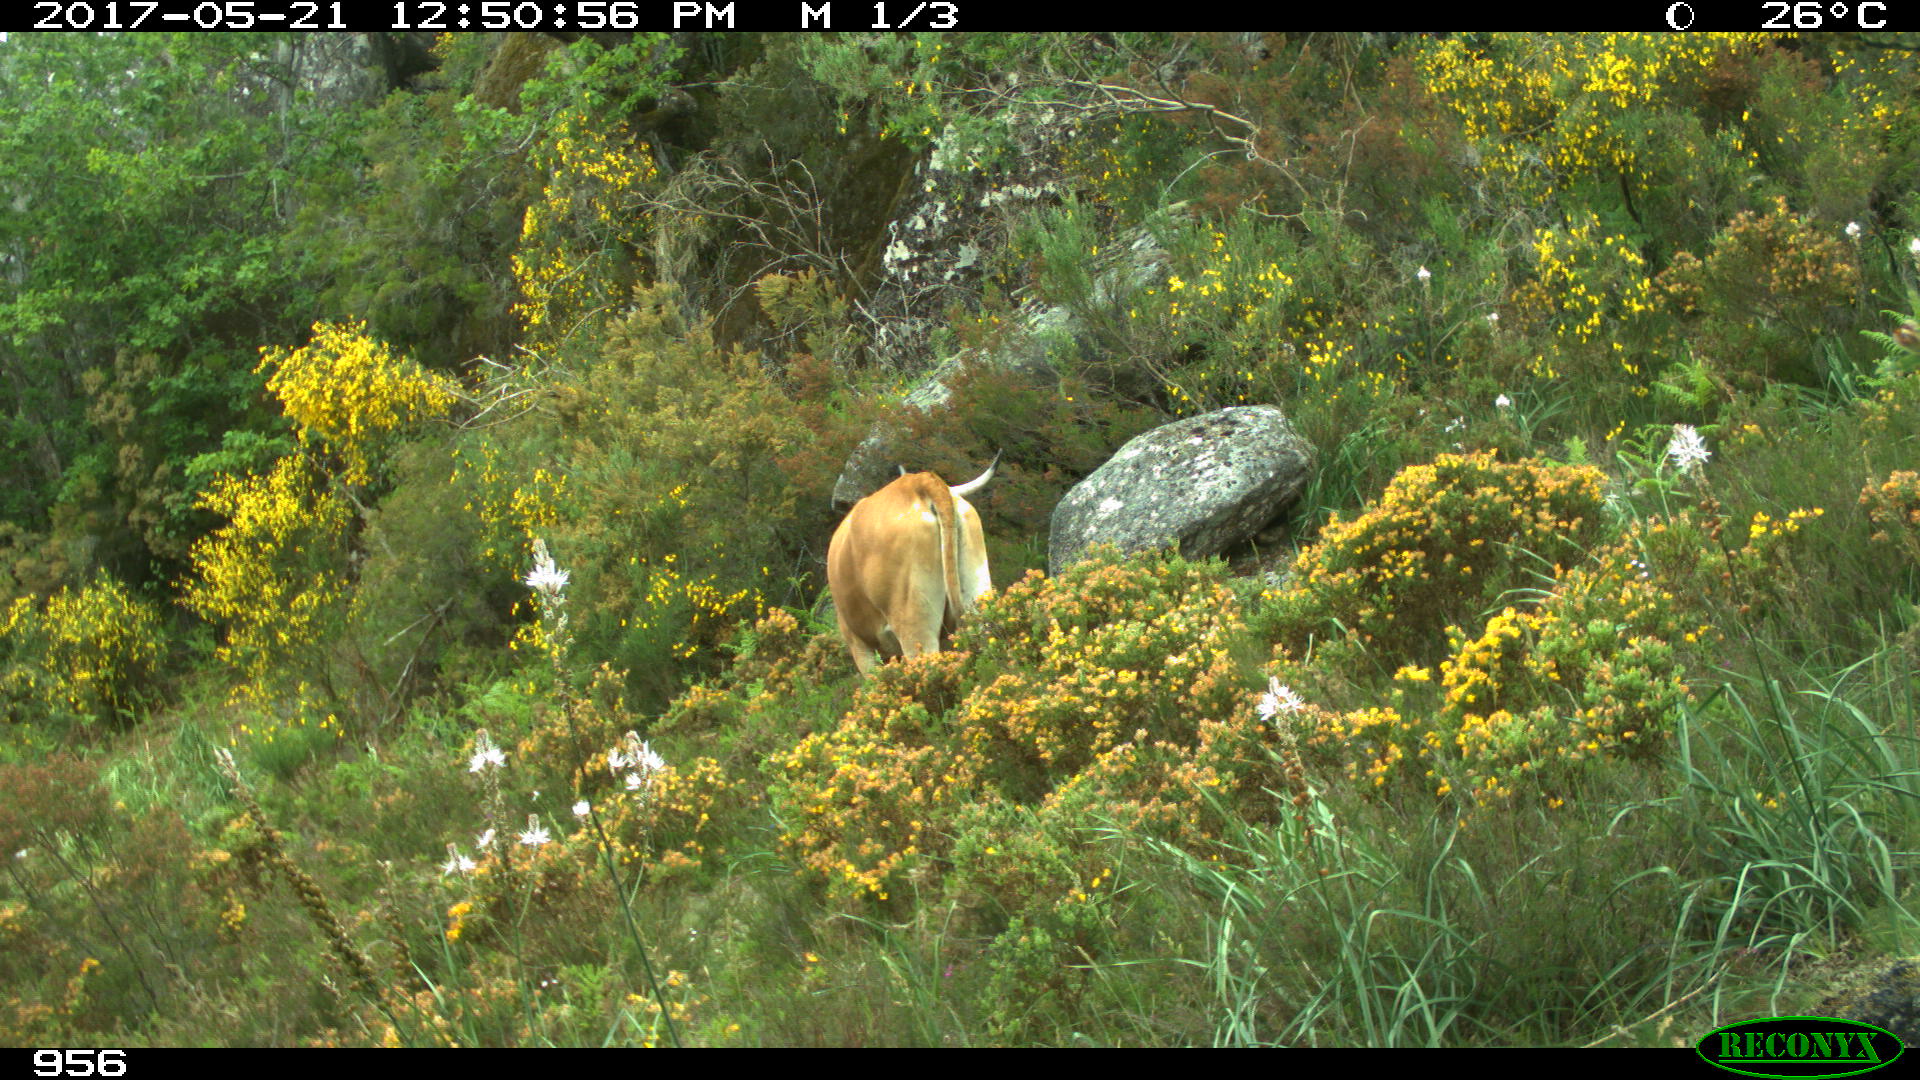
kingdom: Animalia
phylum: Chordata
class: Mammalia
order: Artiodactyla
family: Bovidae
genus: Bos
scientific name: Bos taurus
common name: Domesticated cattle
